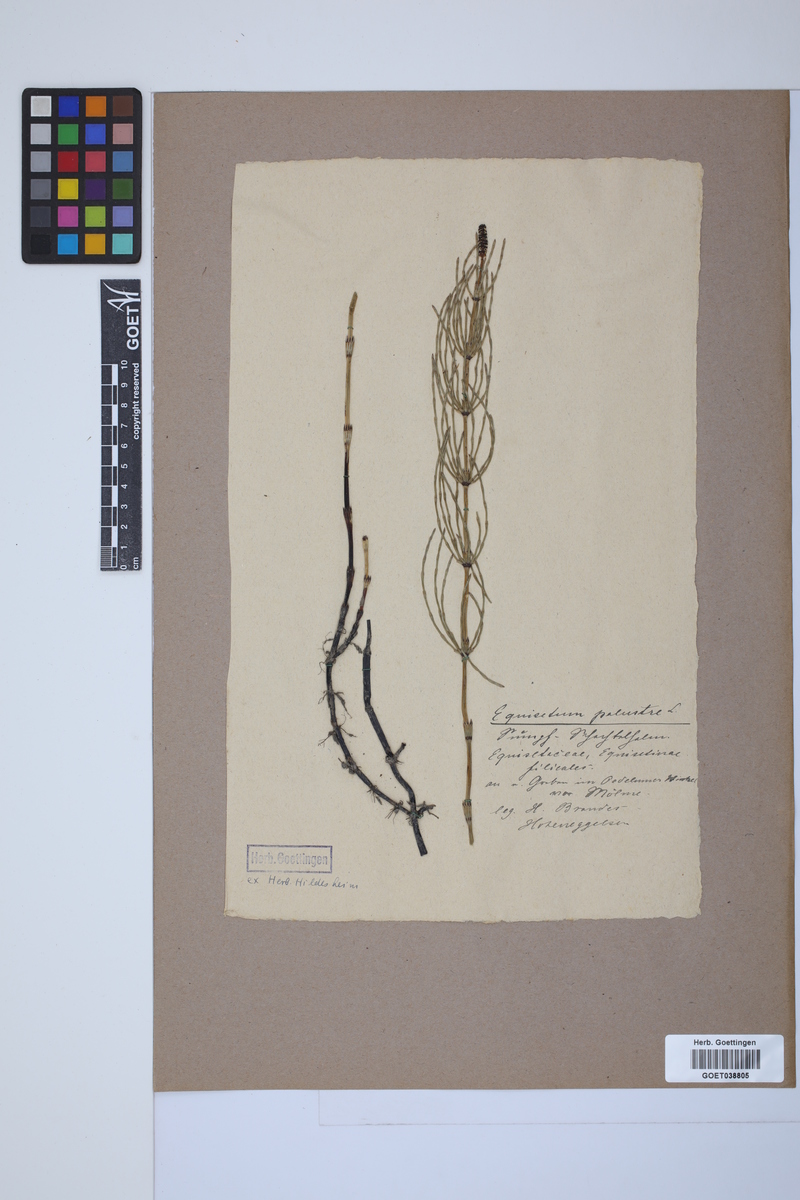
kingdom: Plantae
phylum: Tracheophyta
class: Polypodiopsida
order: Equisetales
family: Equisetaceae
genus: Equisetum
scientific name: Equisetum palustre
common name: Marsh horsetail
